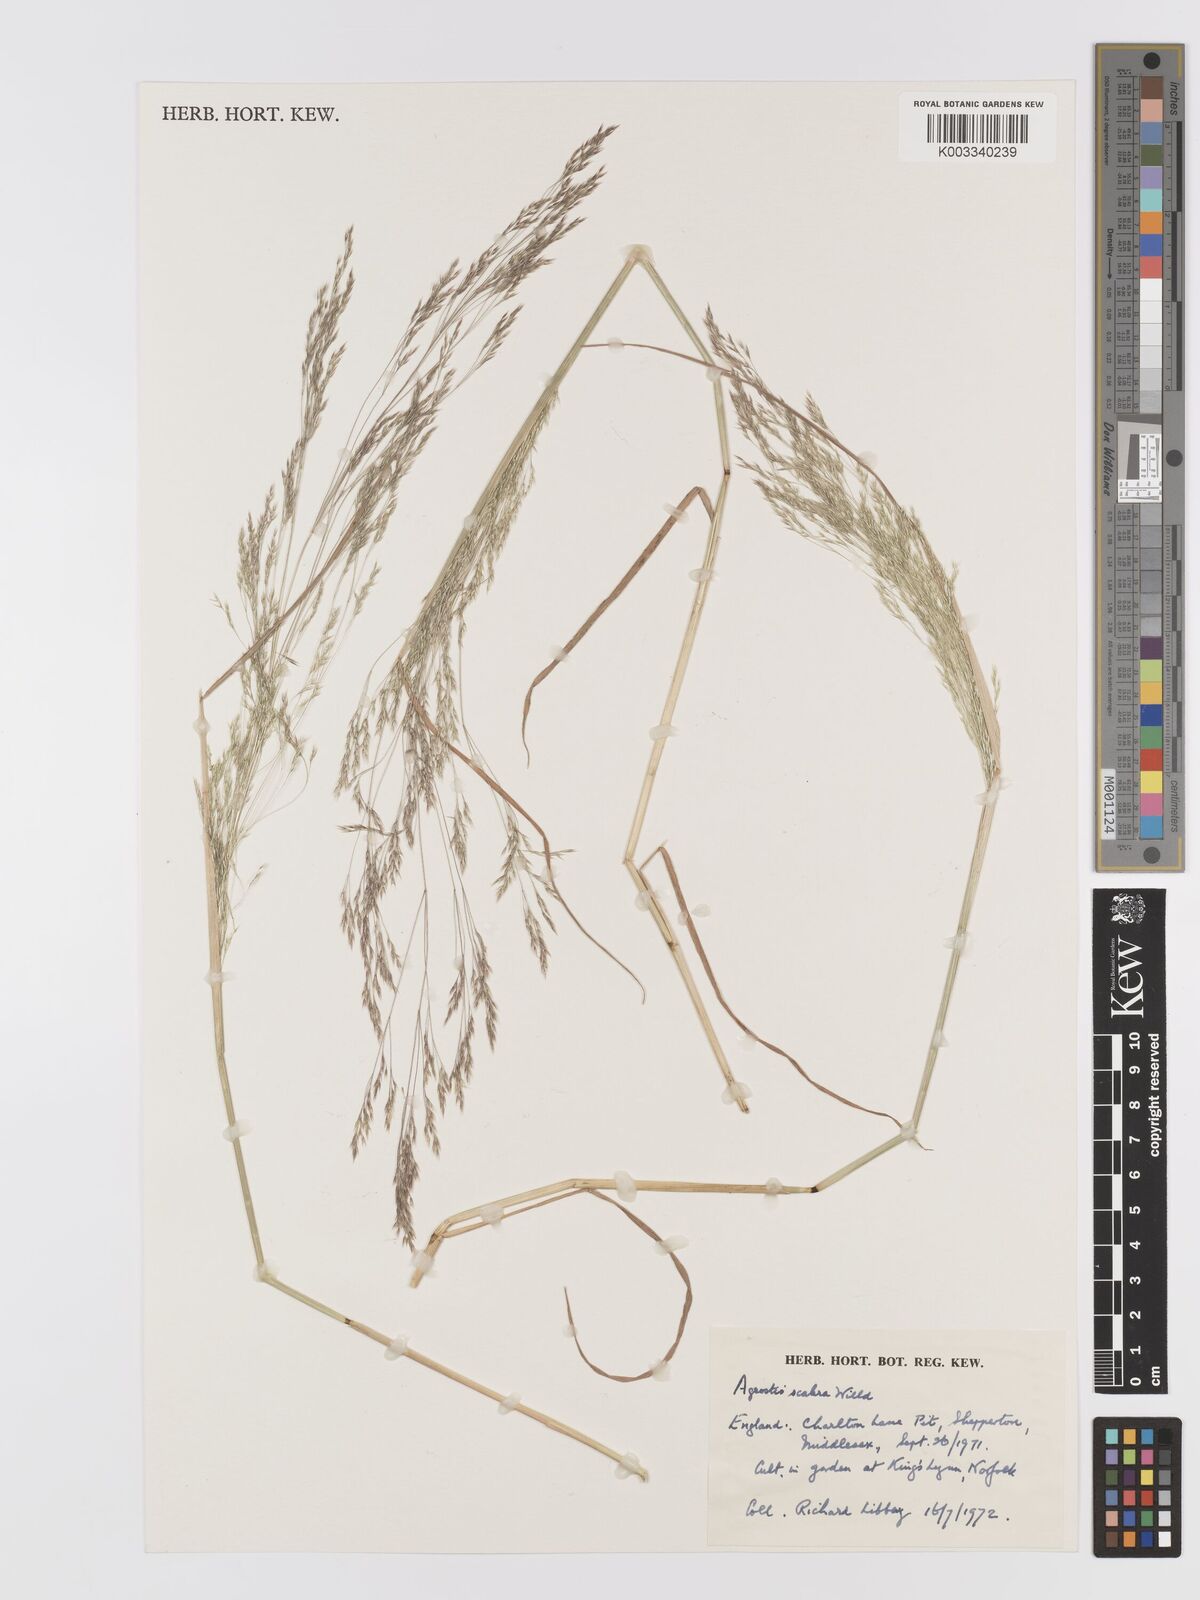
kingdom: Plantae
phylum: Tracheophyta
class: Liliopsida
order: Poales
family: Poaceae
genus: Agrostis
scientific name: Agrostis scabra
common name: Rough bent
